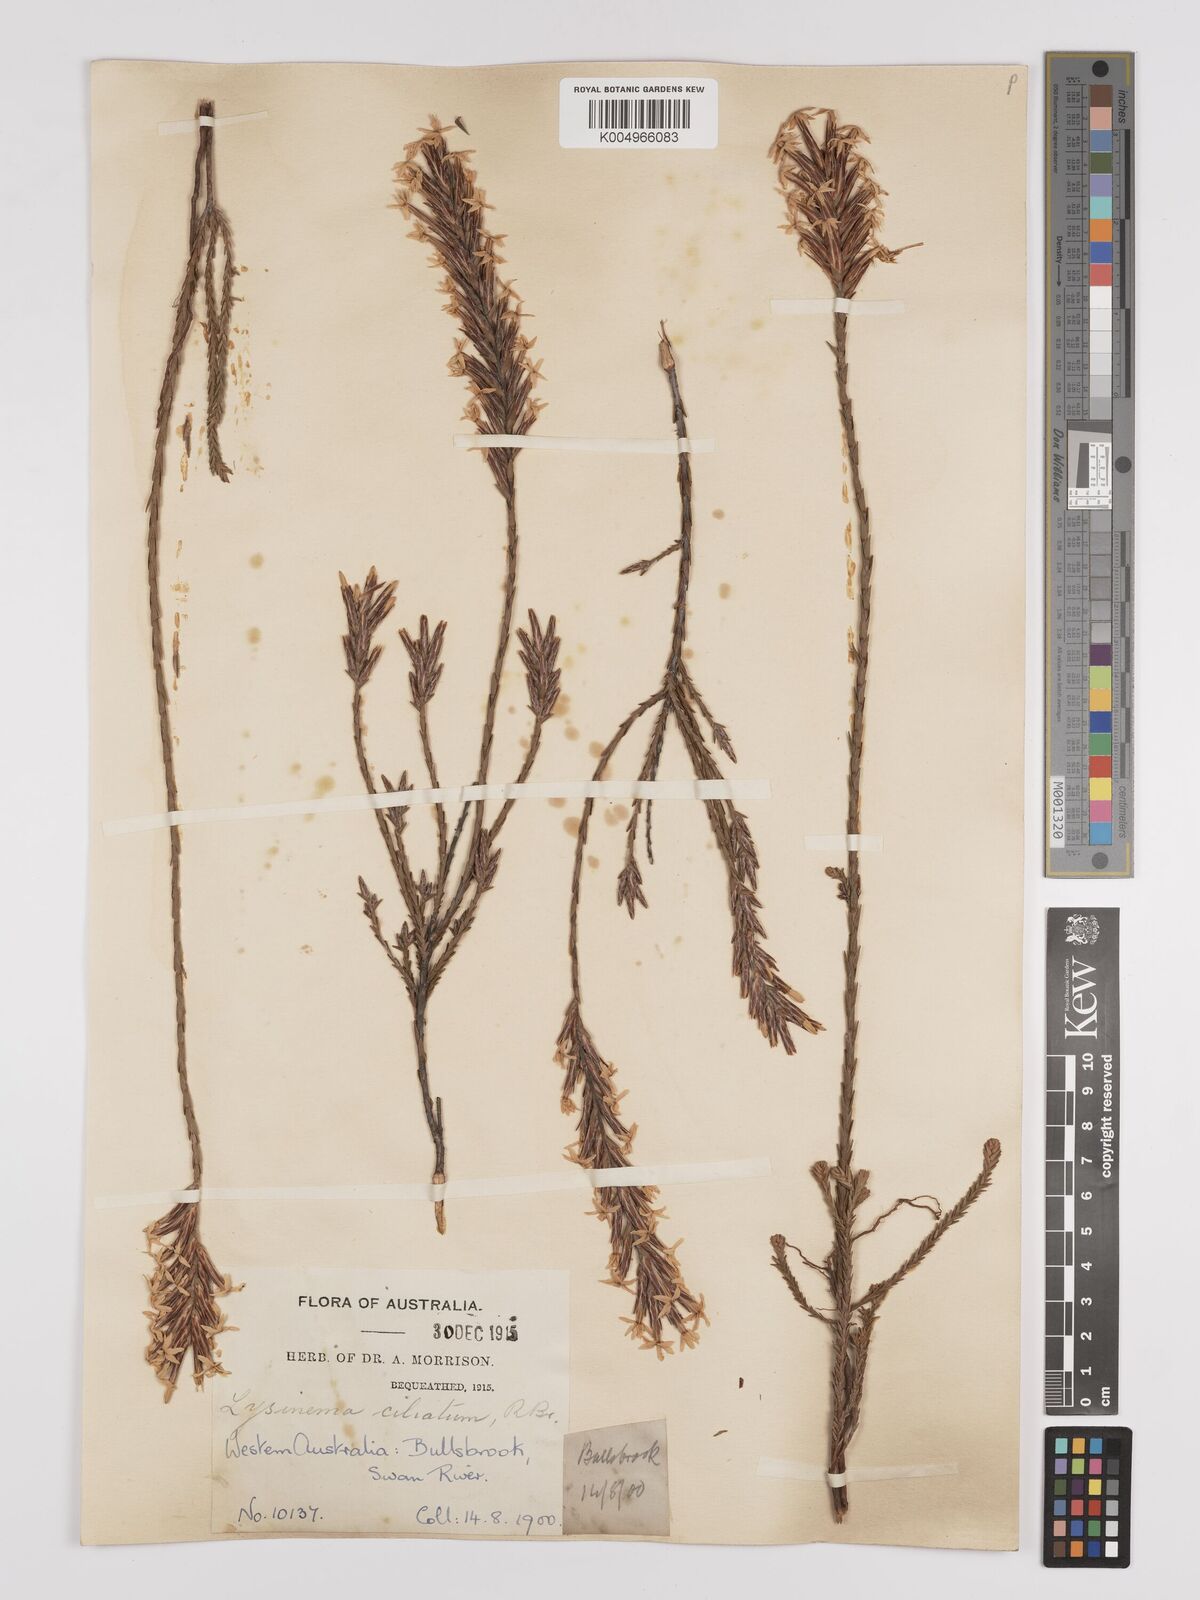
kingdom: Plantae
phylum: Tracheophyta
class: Magnoliopsida
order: Ericales
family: Ericaceae
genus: Lysinema
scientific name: Lysinema ciliatum
